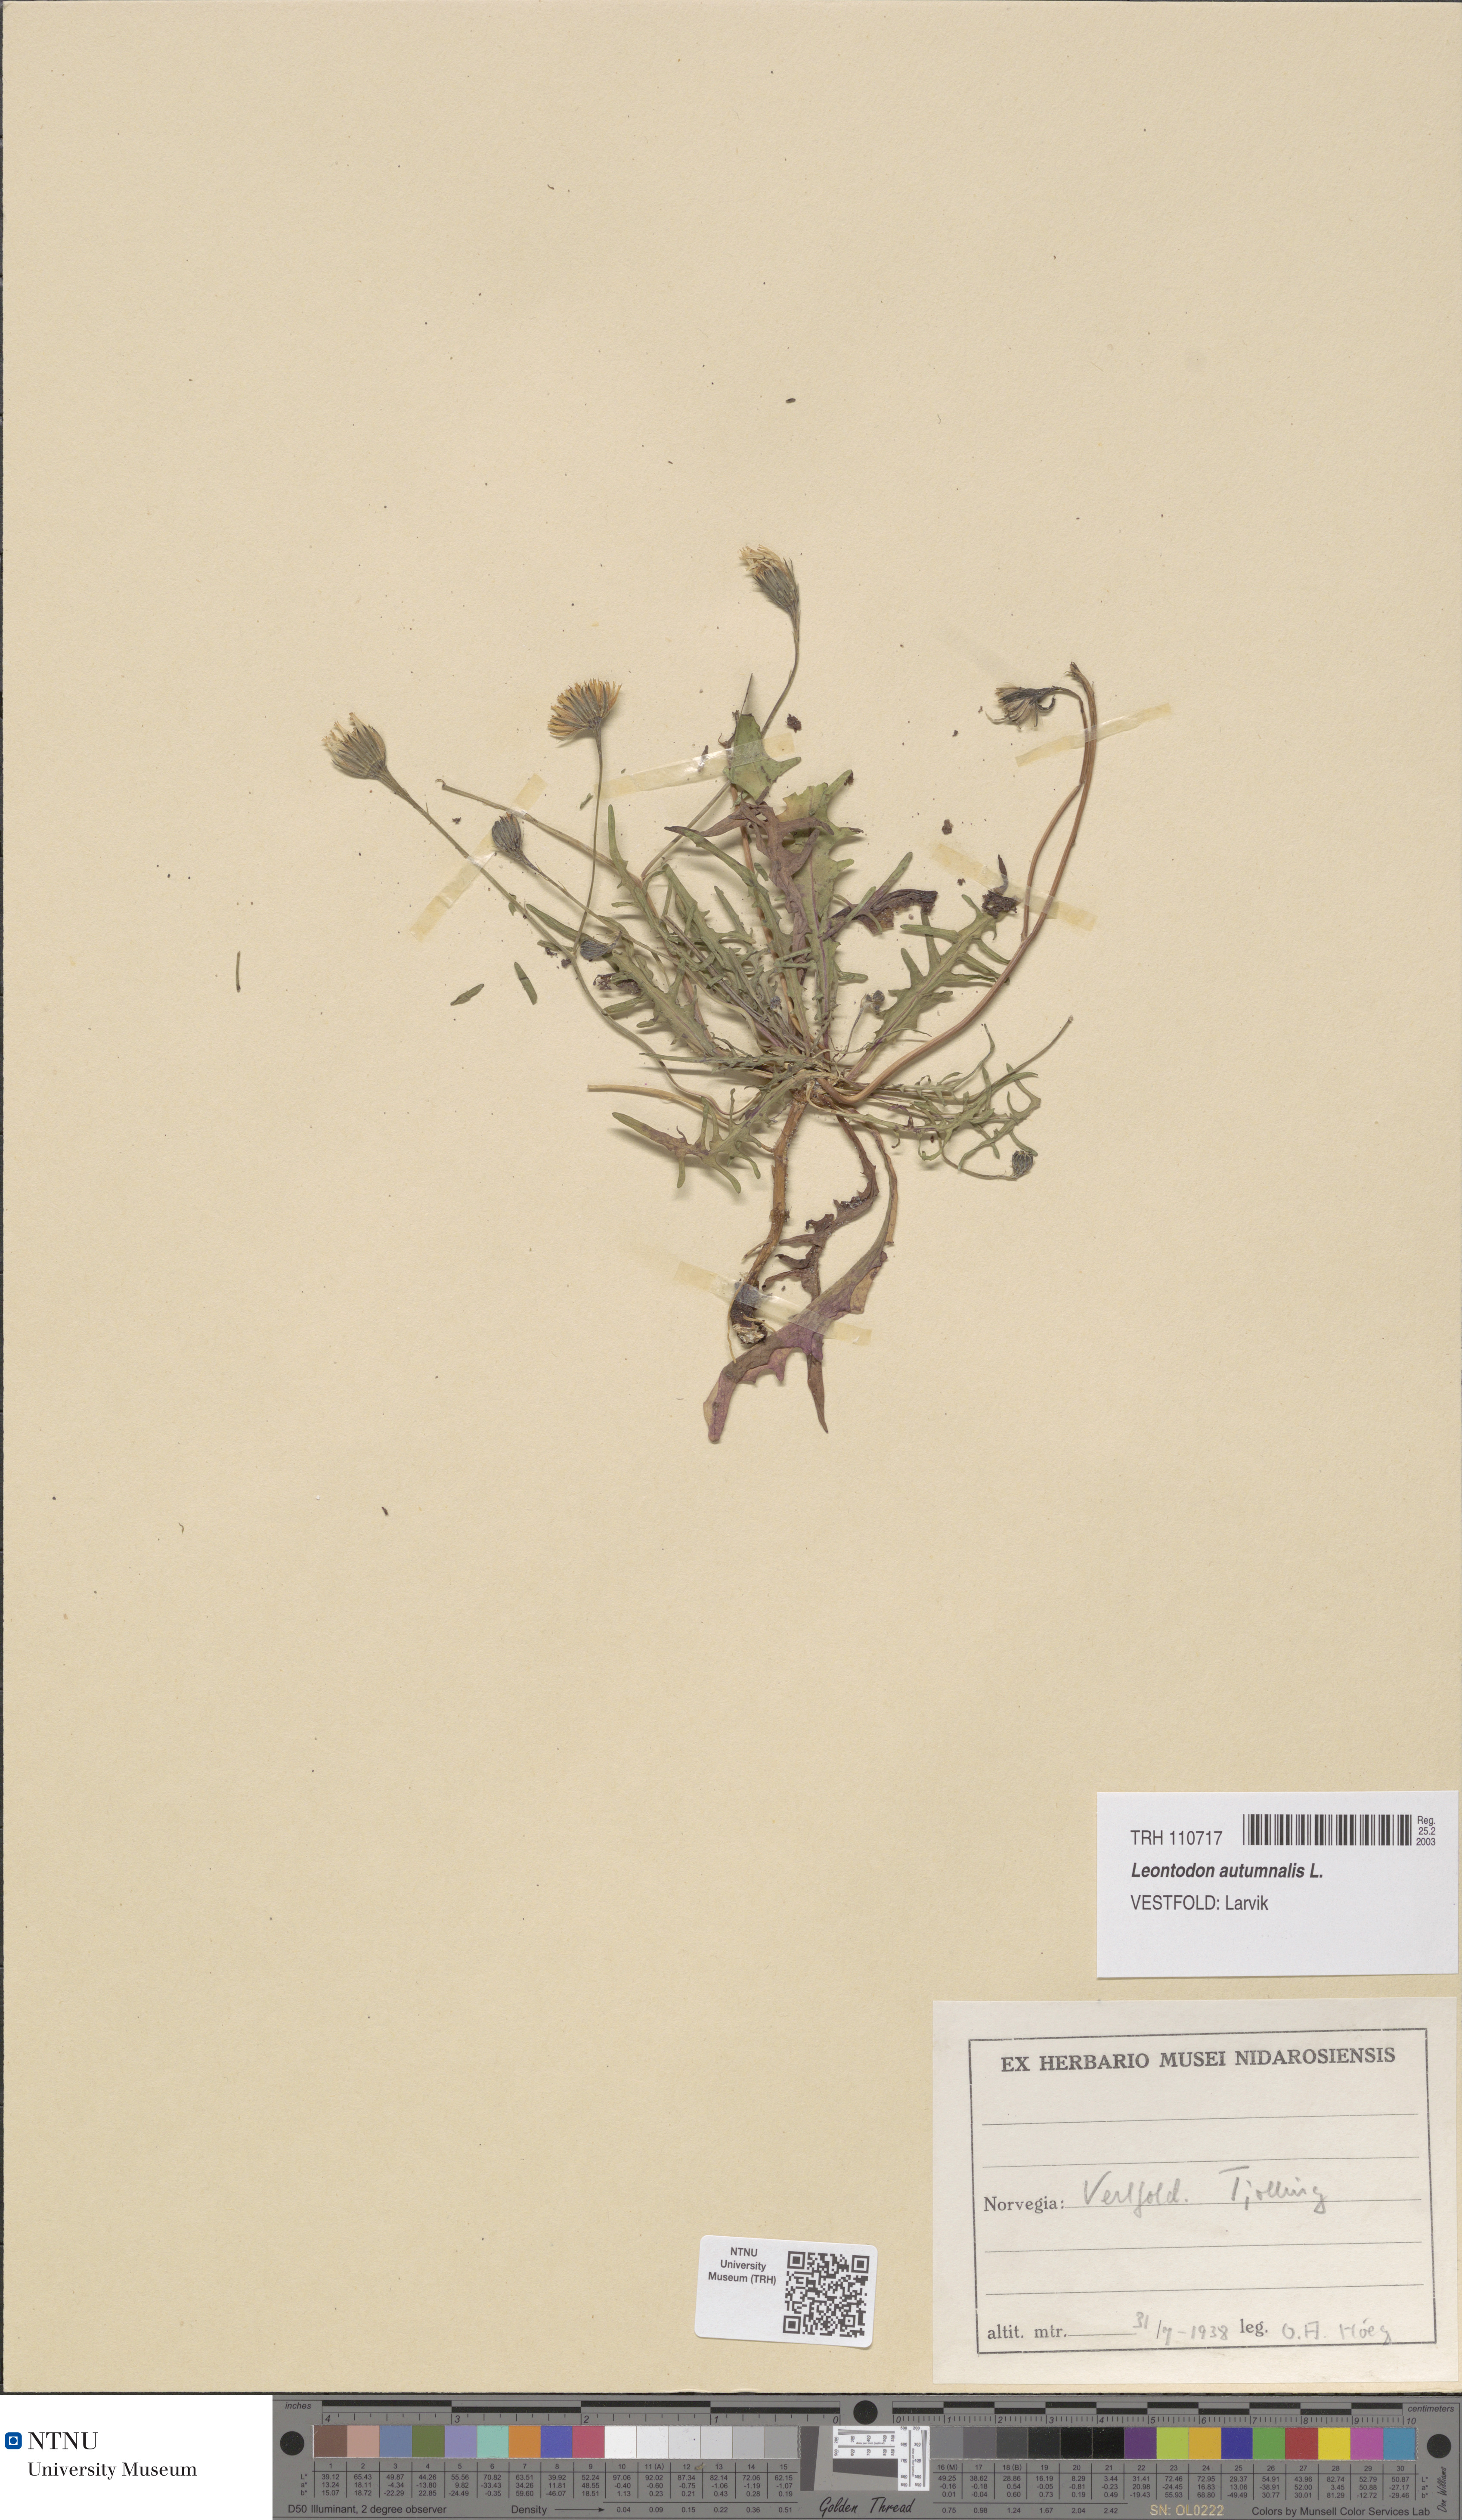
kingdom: Plantae
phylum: Tracheophyta
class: Magnoliopsida
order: Asterales
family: Asteraceae
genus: Scorzoneroides
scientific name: Scorzoneroides autumnalis
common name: Autumn hawkbit
